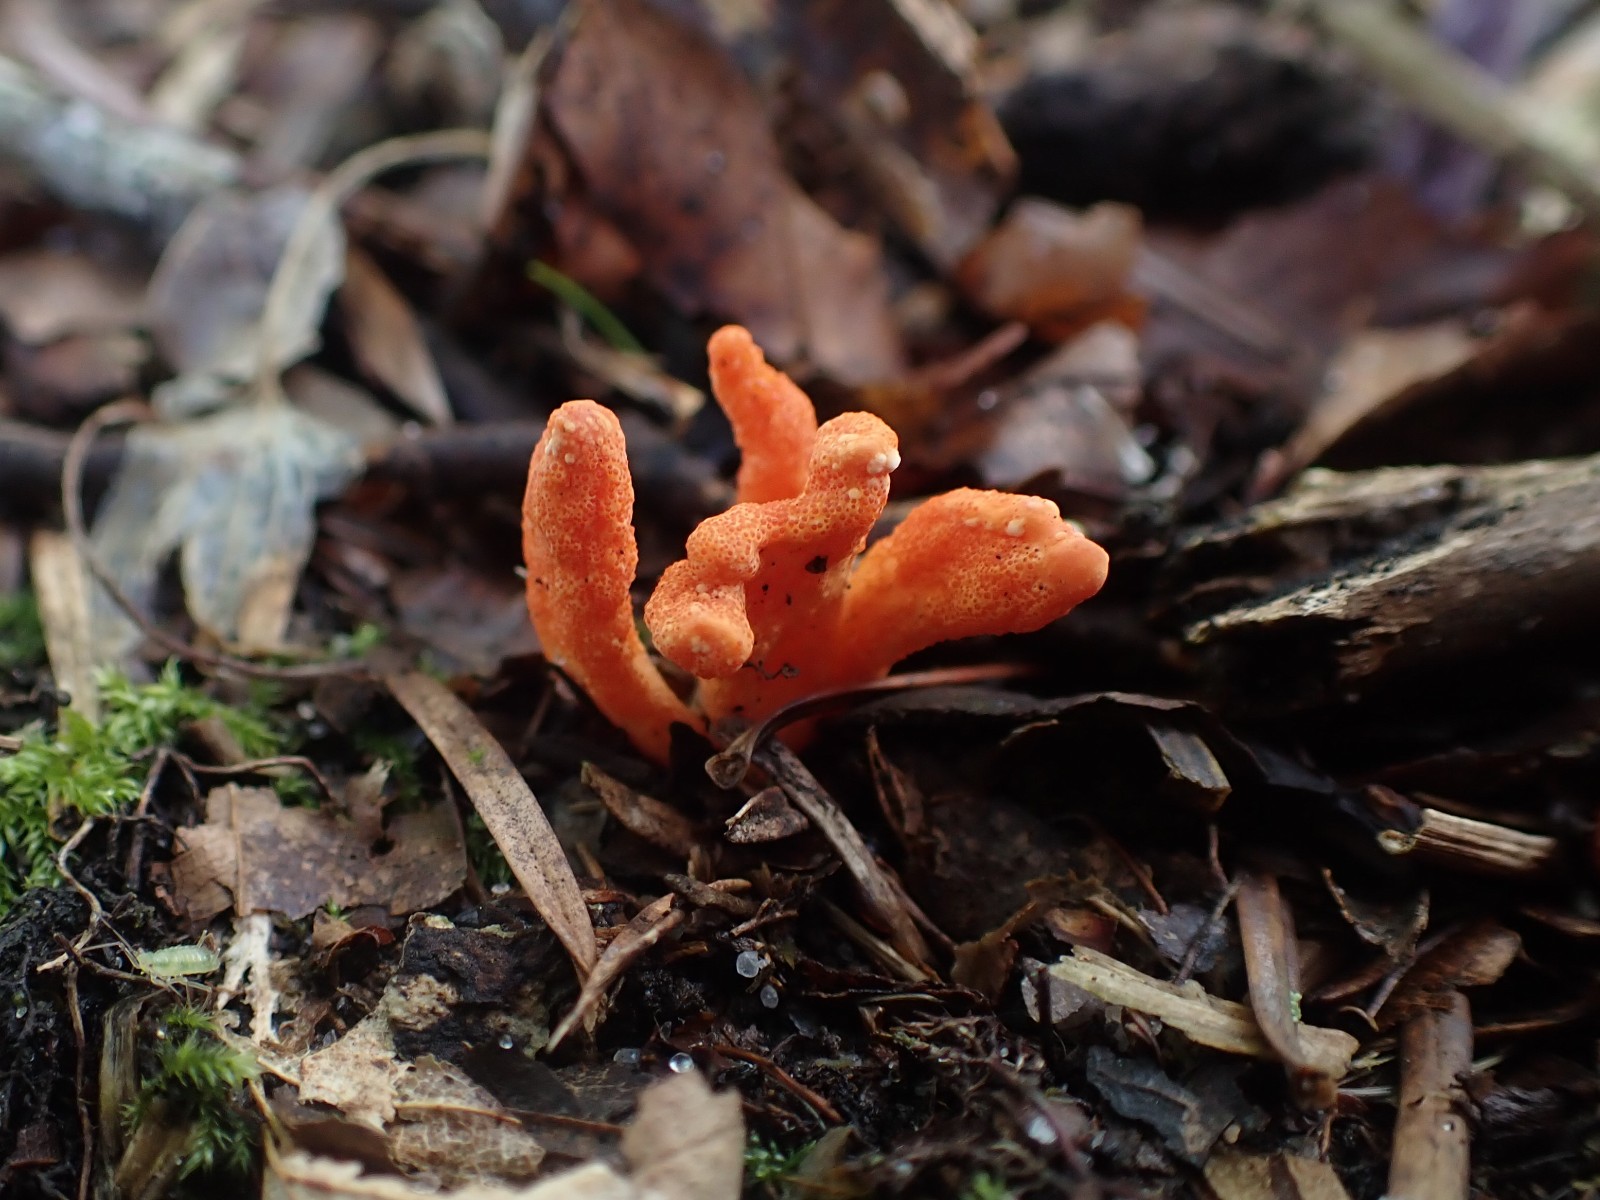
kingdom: Fungi
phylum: Ascomycota
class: Sordariomycetes
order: Hypocreales
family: Cordycipitaceae
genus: Cordyceps
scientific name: Cordyceps militaris
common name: puppe-snyltekølle
